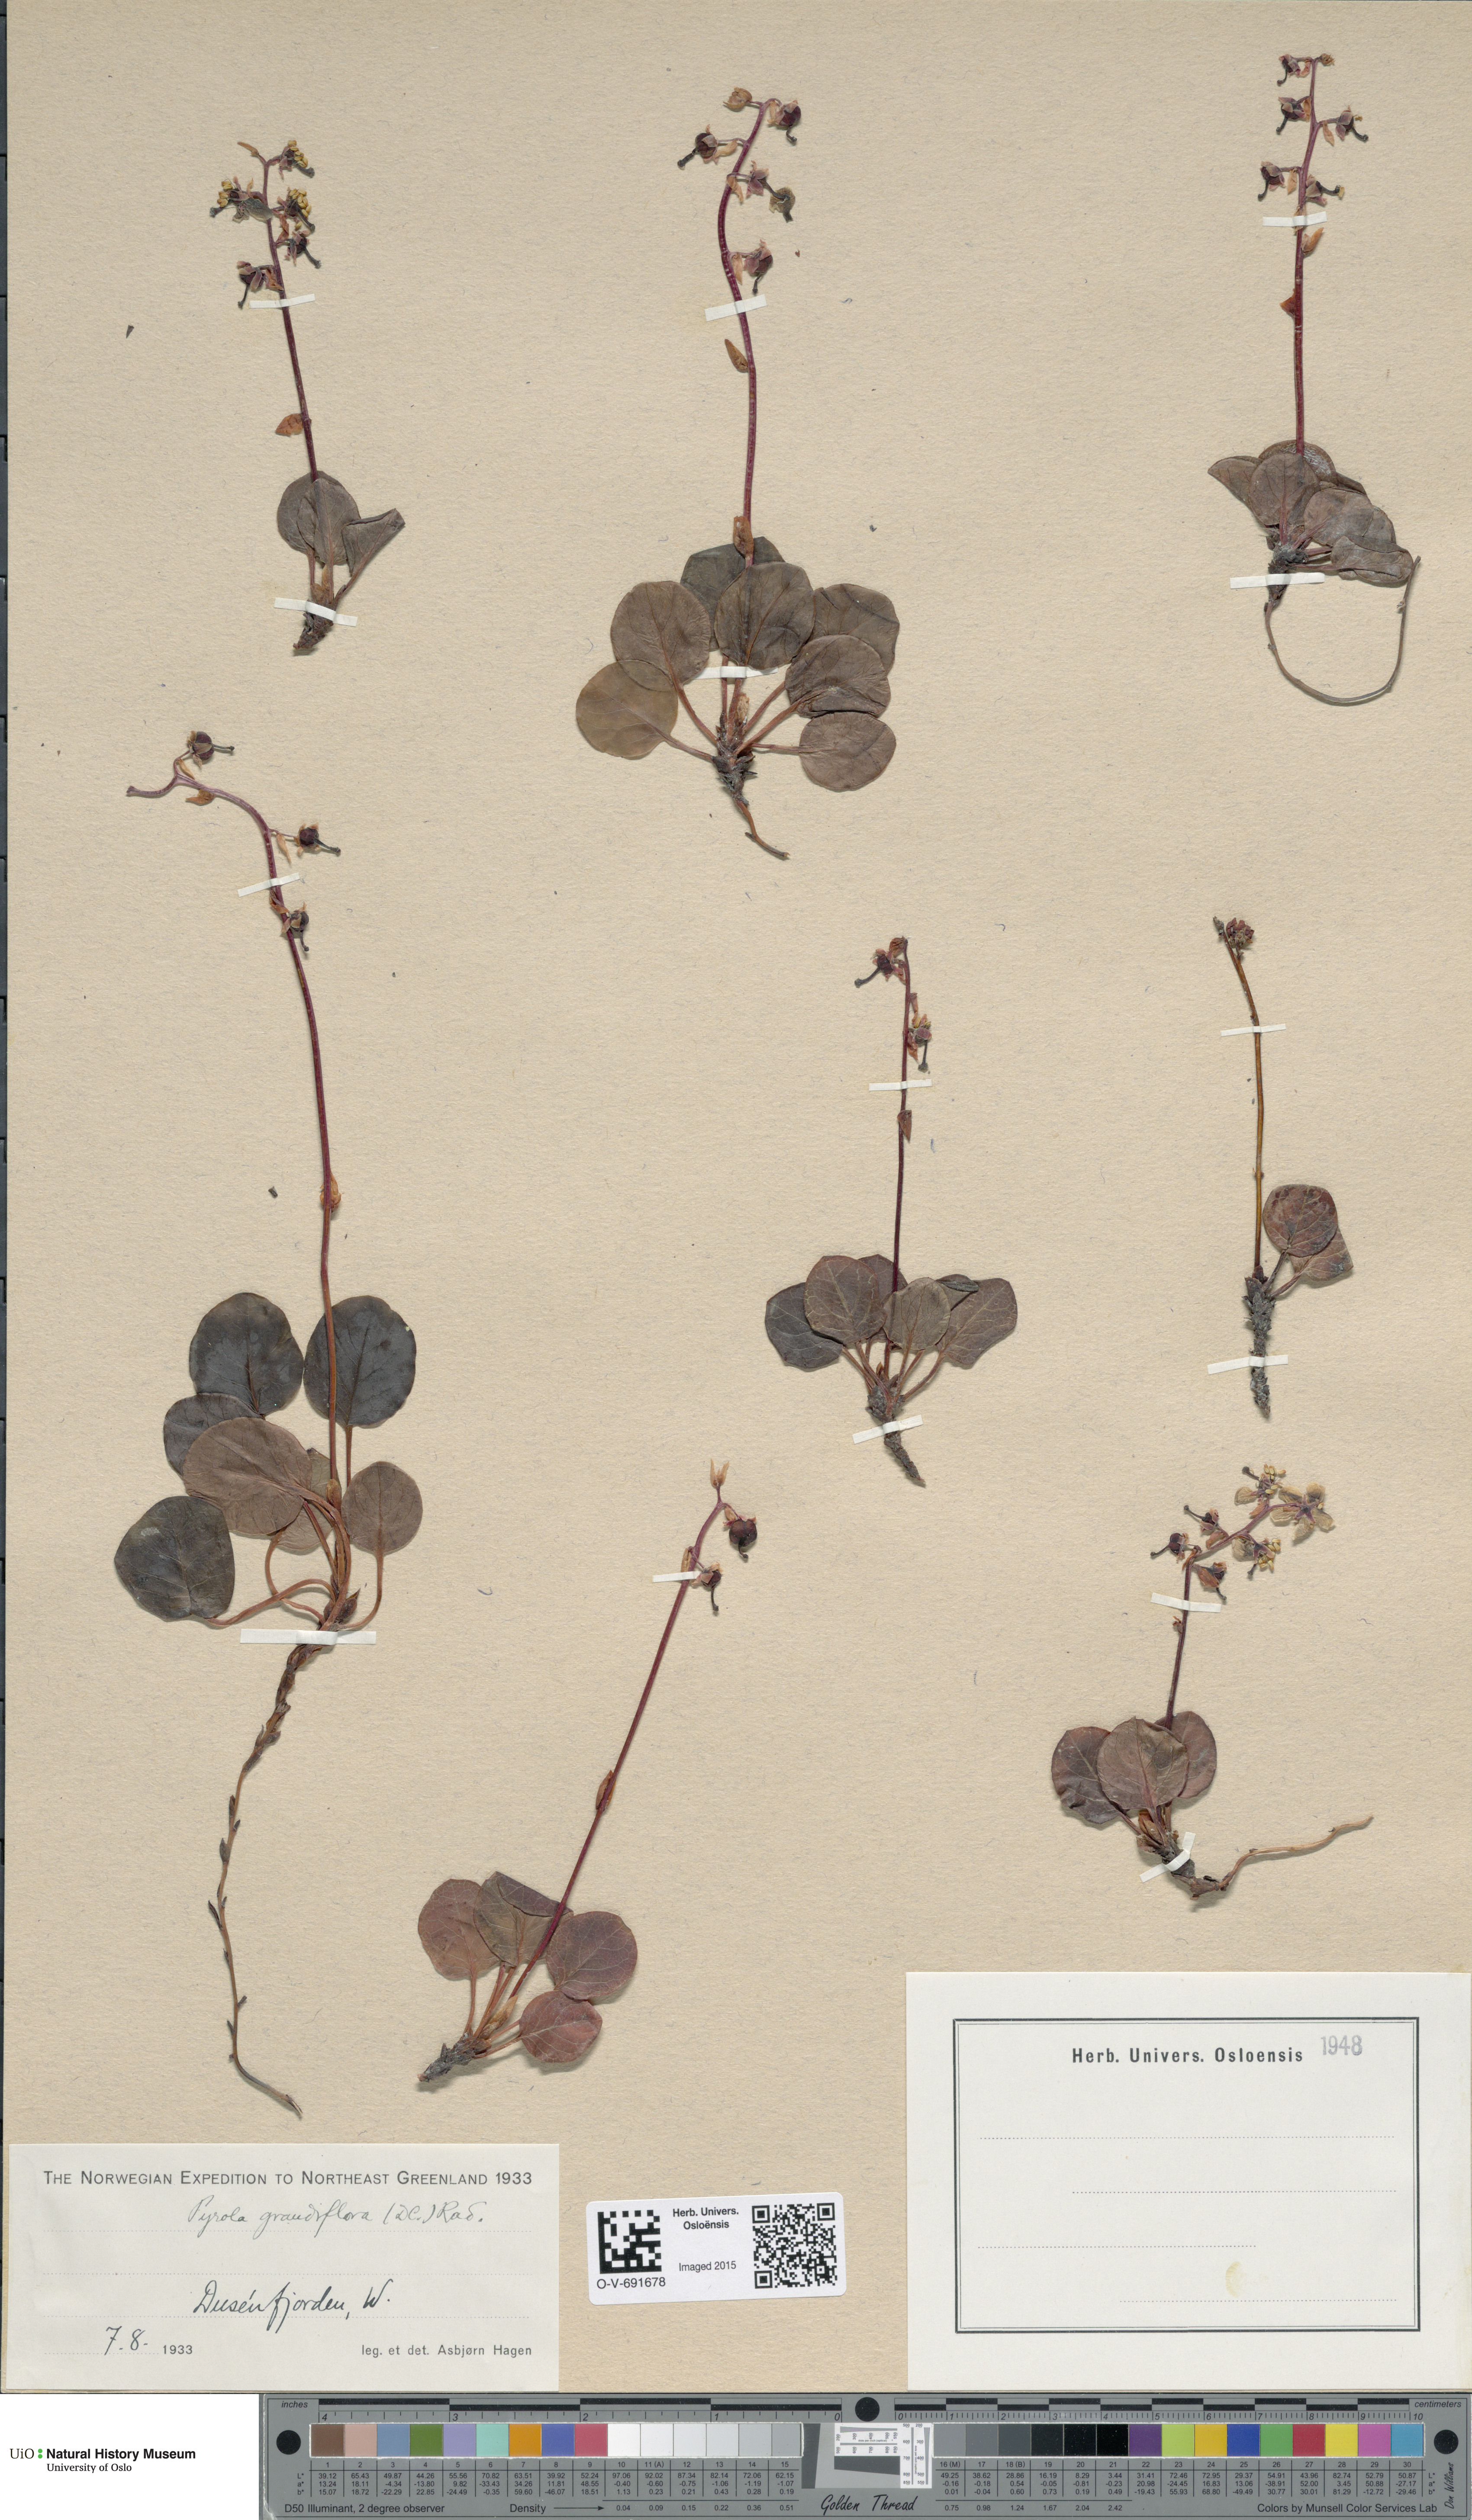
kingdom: Plantae
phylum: Tracheophyta
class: Magnoliopsida
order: Ericales
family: Ericaceae
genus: Pyrola
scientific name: Pyrola grandiflora
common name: Arctic pyrola
